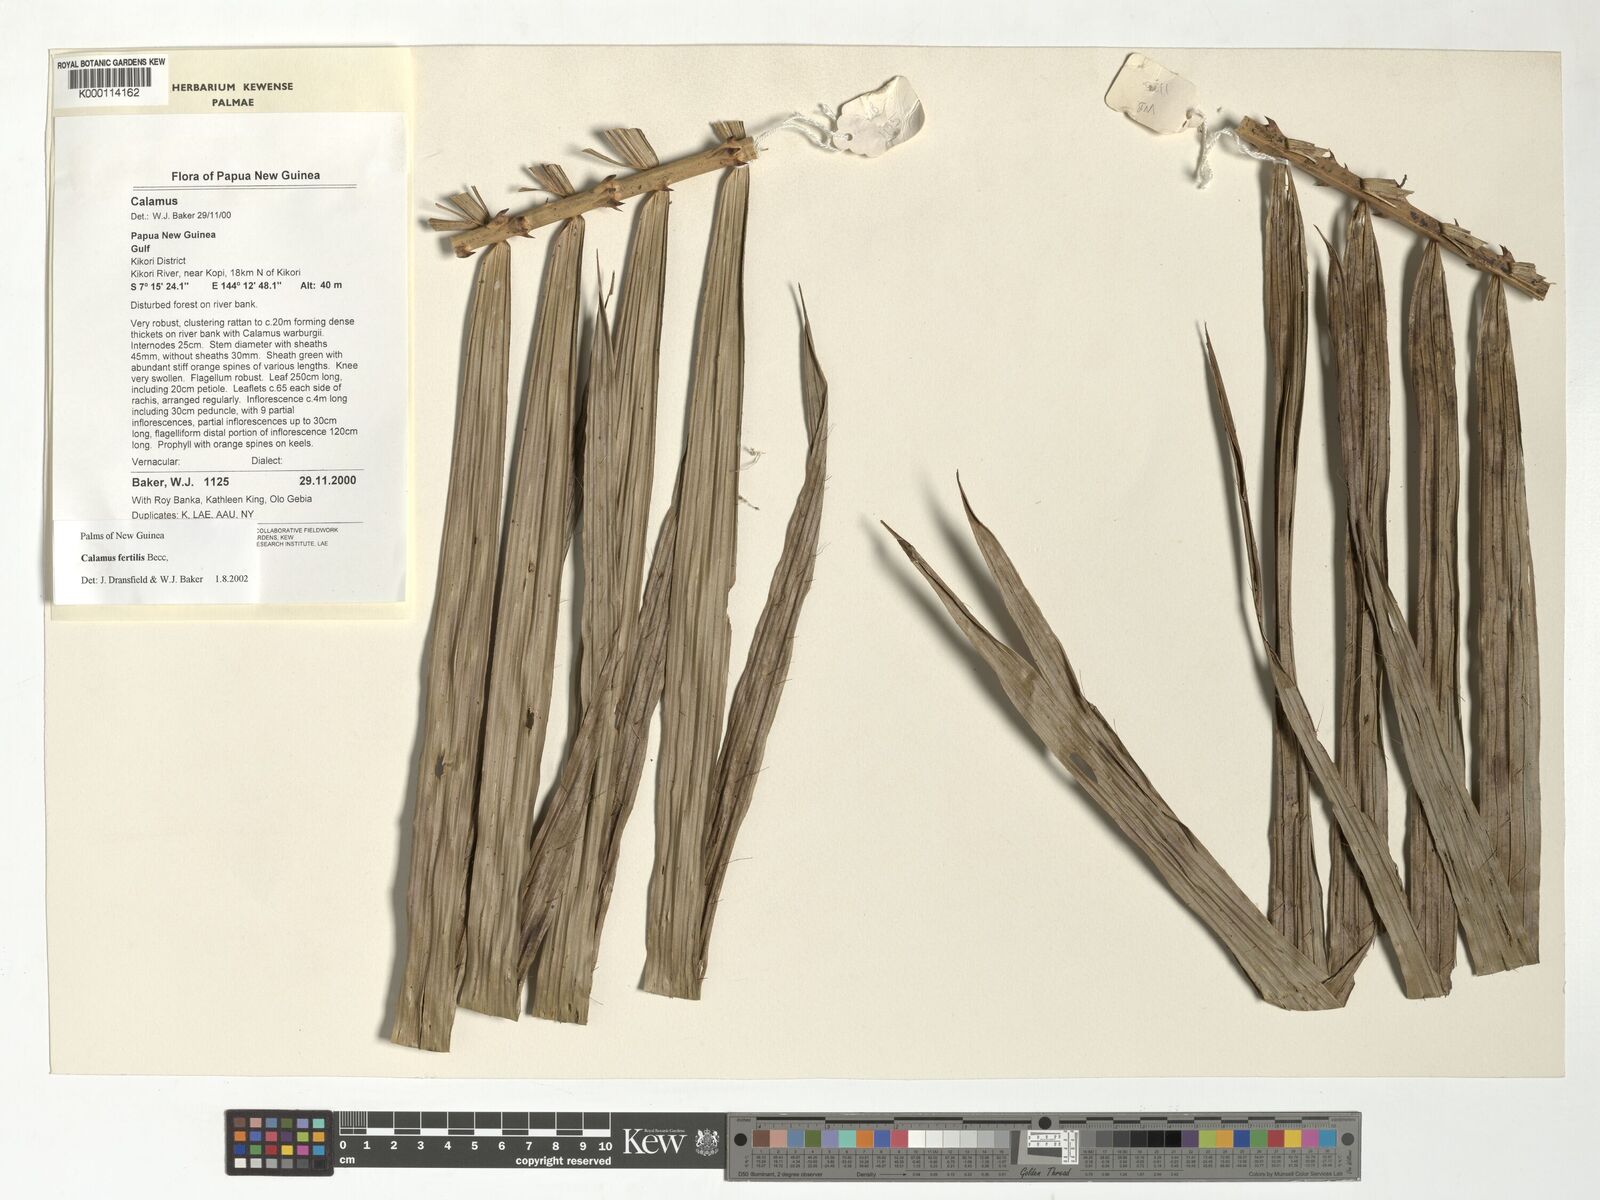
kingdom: Plantae
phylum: Tracheophyta
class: Liliopsida
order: Arecales
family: Arecaceae
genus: Calamus
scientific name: Calamus fertilis
